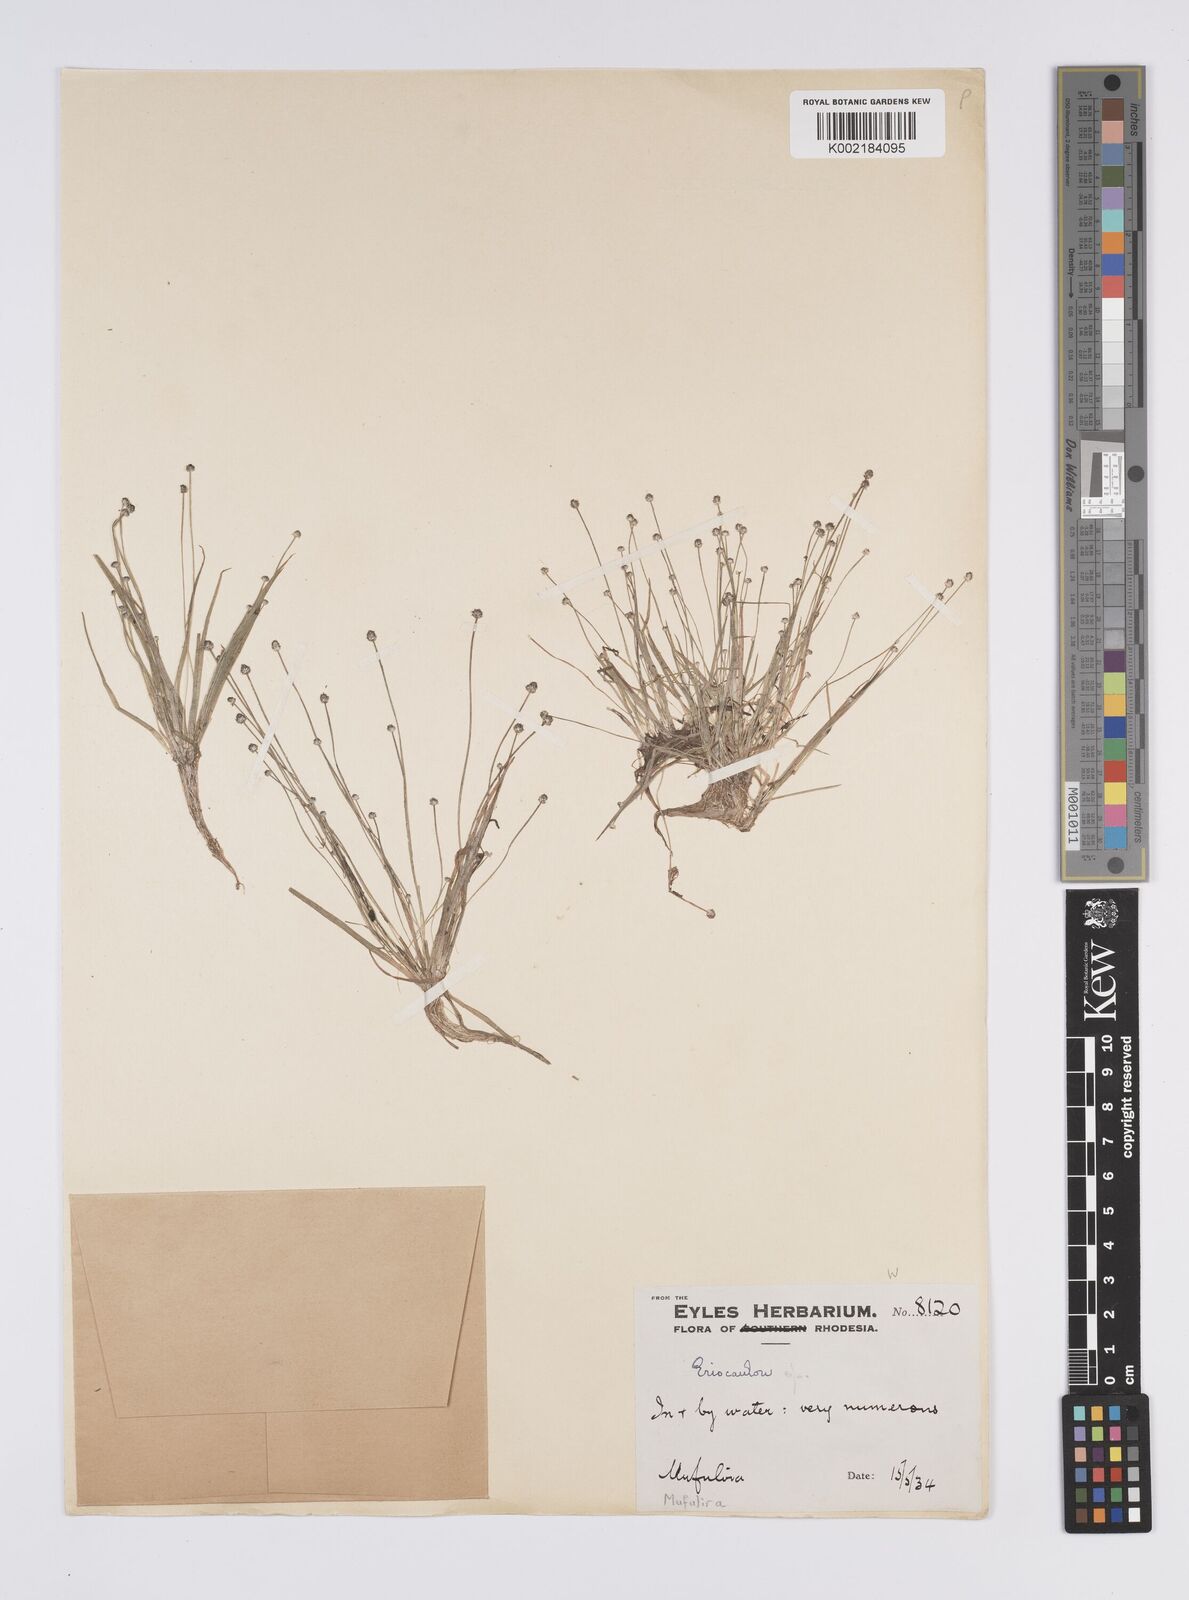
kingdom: Plantae
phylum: Tracheophyta
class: Liliopsida
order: Poales
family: Eriocaulaceae
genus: Eriocaulon
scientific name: Eriocaulon abyssinicum
